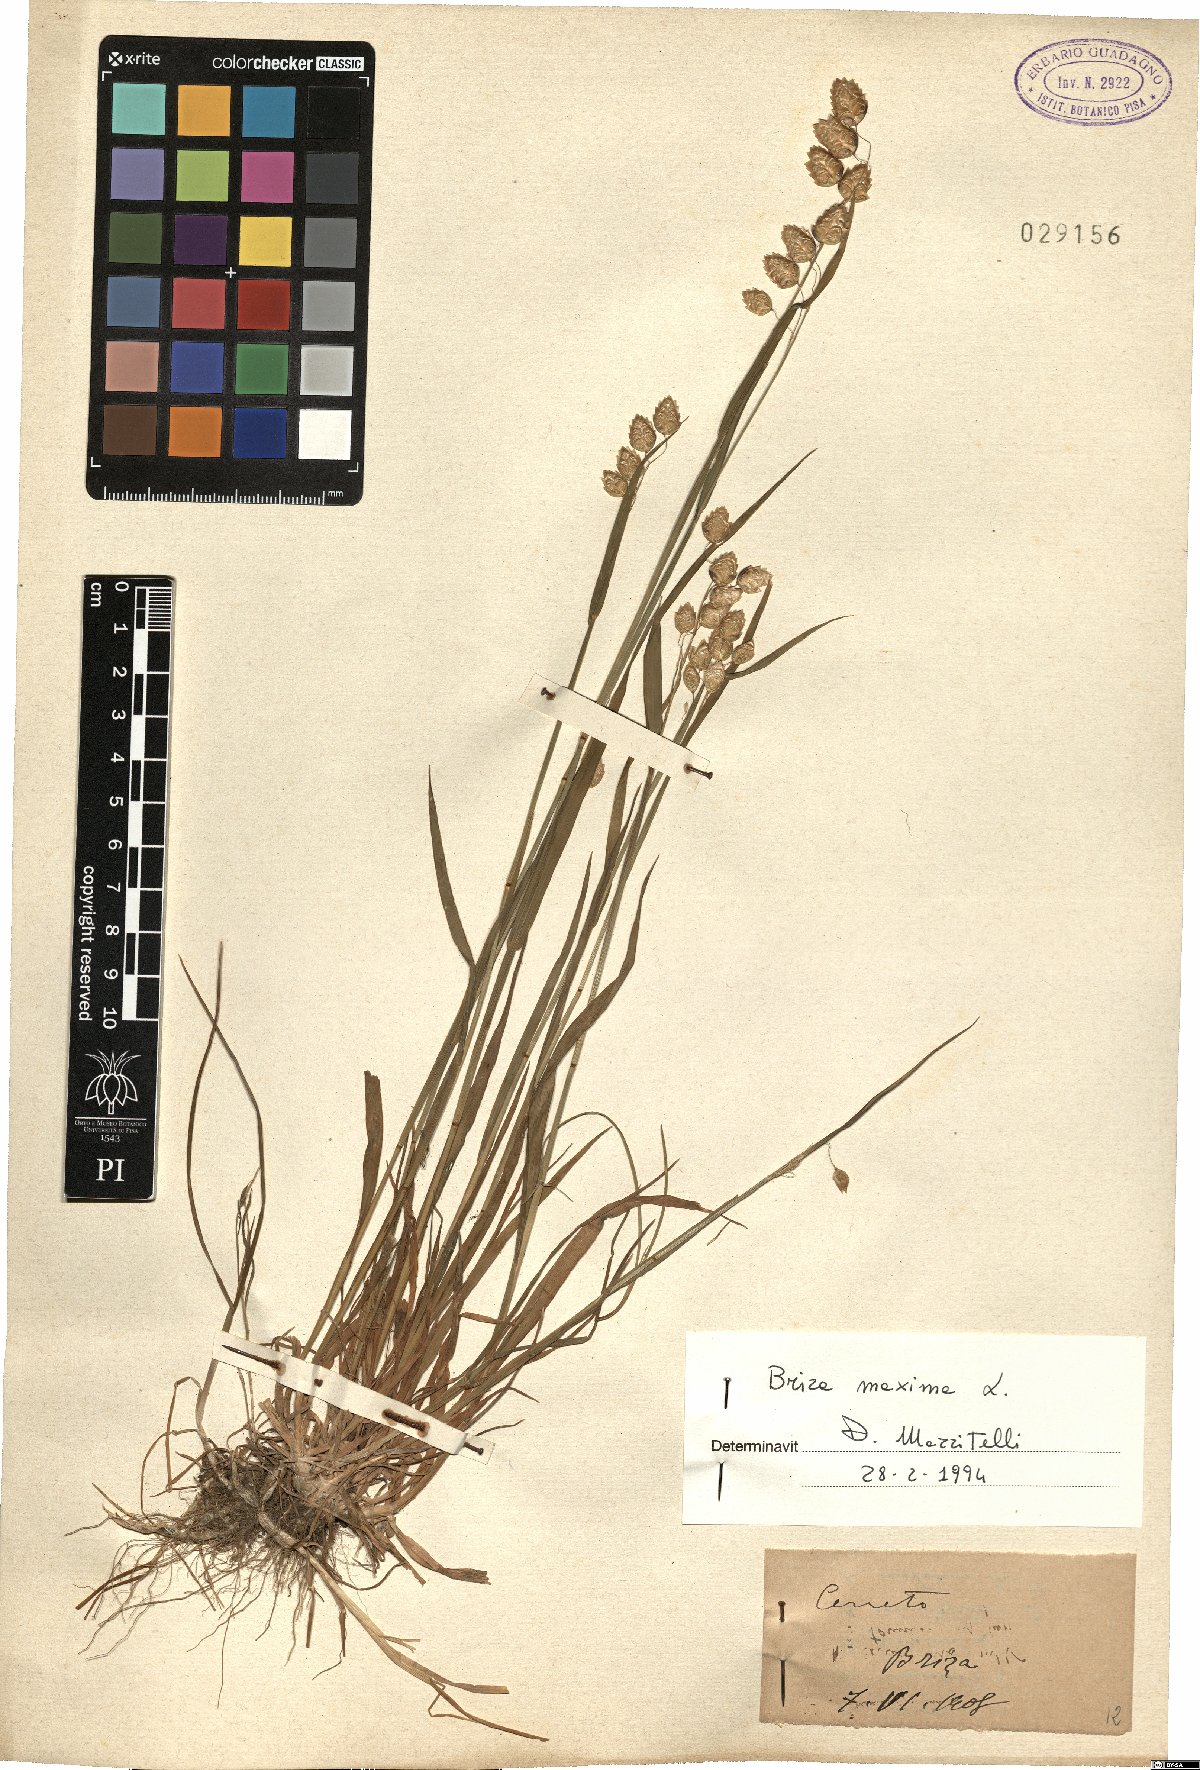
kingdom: Plantae
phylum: Tracheophyta
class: Liliopsida
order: Poales
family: Poaceae
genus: Briza
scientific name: Briza maxima
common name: Big quakinggrass
